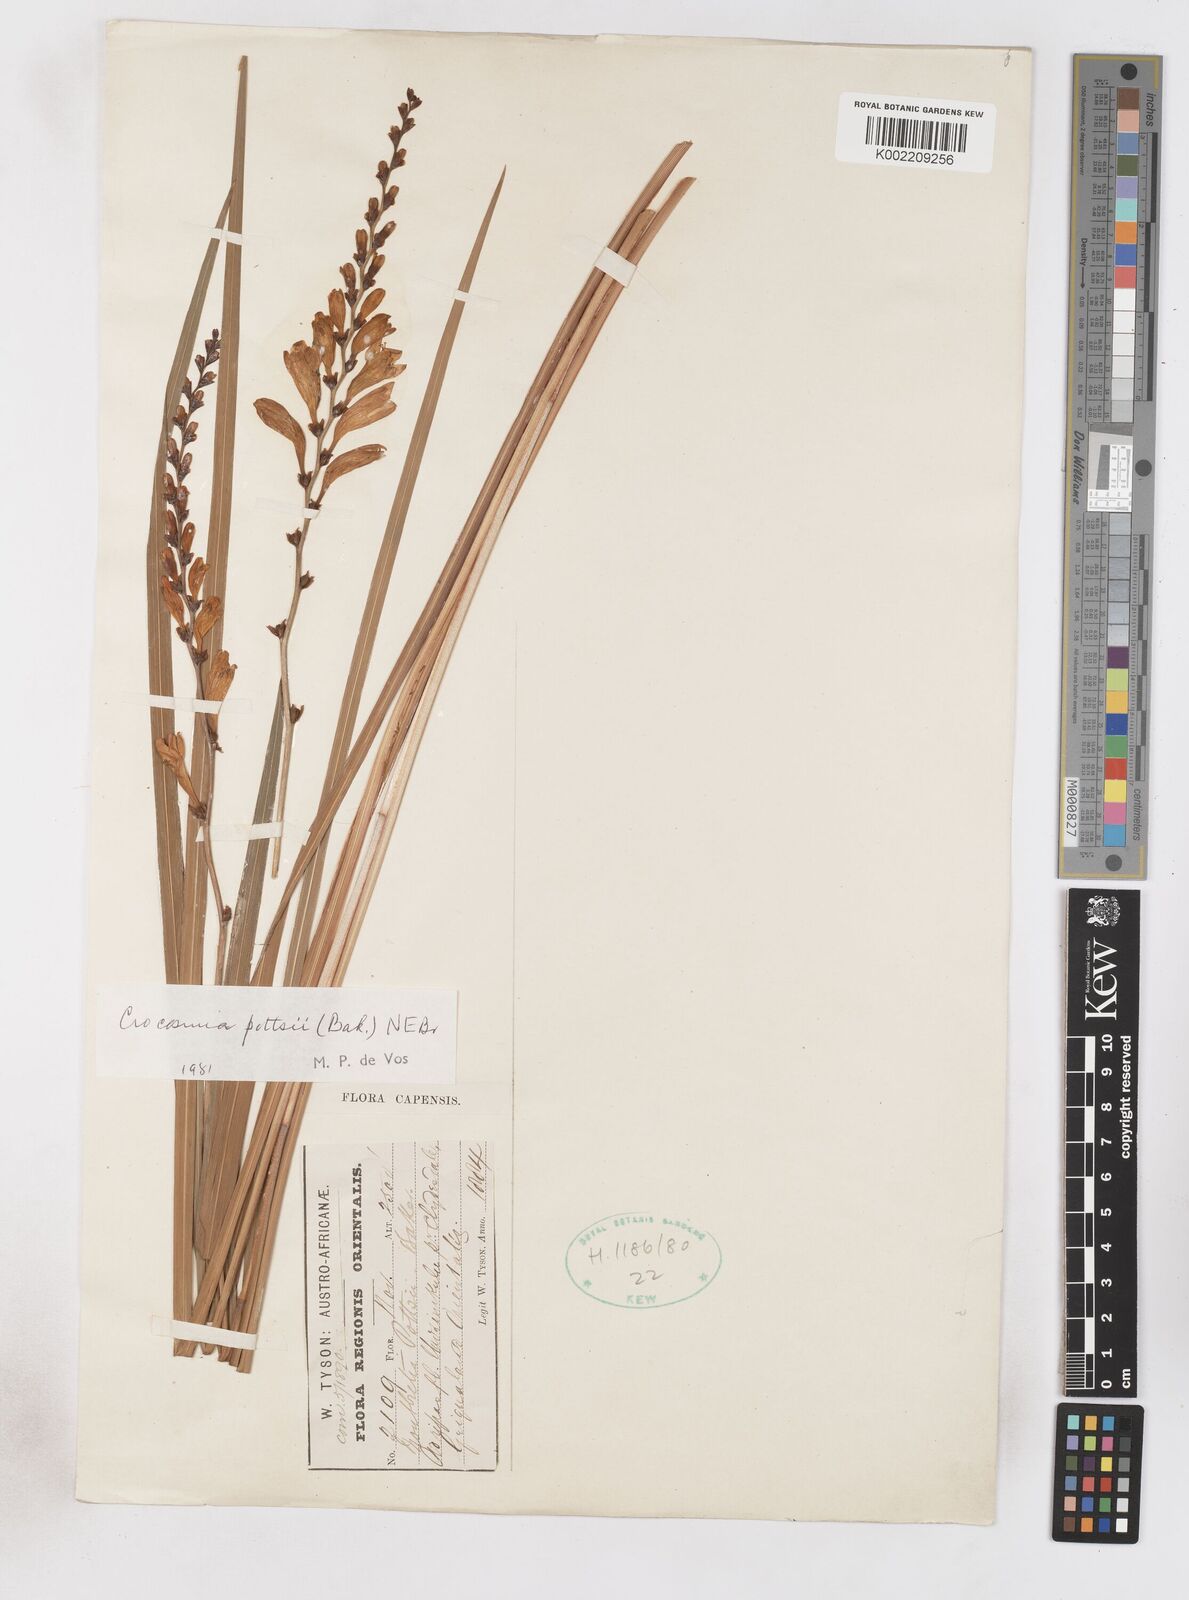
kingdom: Plantae
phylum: Tracheophyta
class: Liliopsida
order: Asparagales
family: Iridaceae
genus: Crocosmia
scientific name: Crocosmia pottsii
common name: Pott's montbretia
